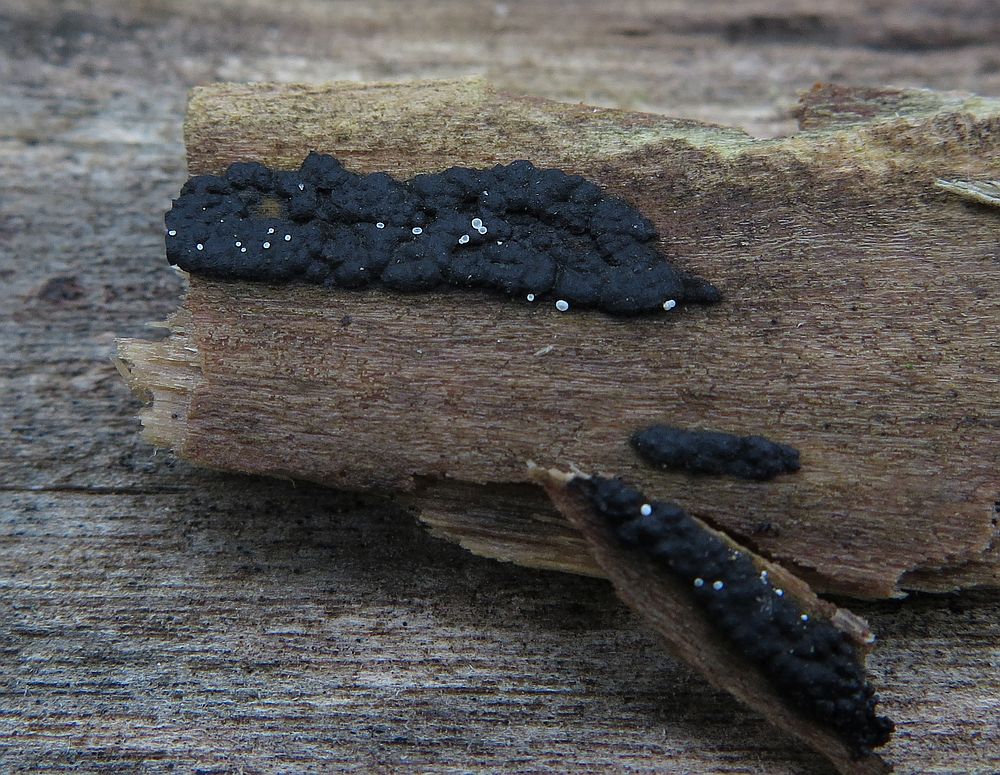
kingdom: Fungi
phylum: Ascomycota
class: Leotiomycetes
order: Helotiales
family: Hyaloscyphaceae
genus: Polydesmia
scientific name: Polydesmia pruinosa
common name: dunskive
